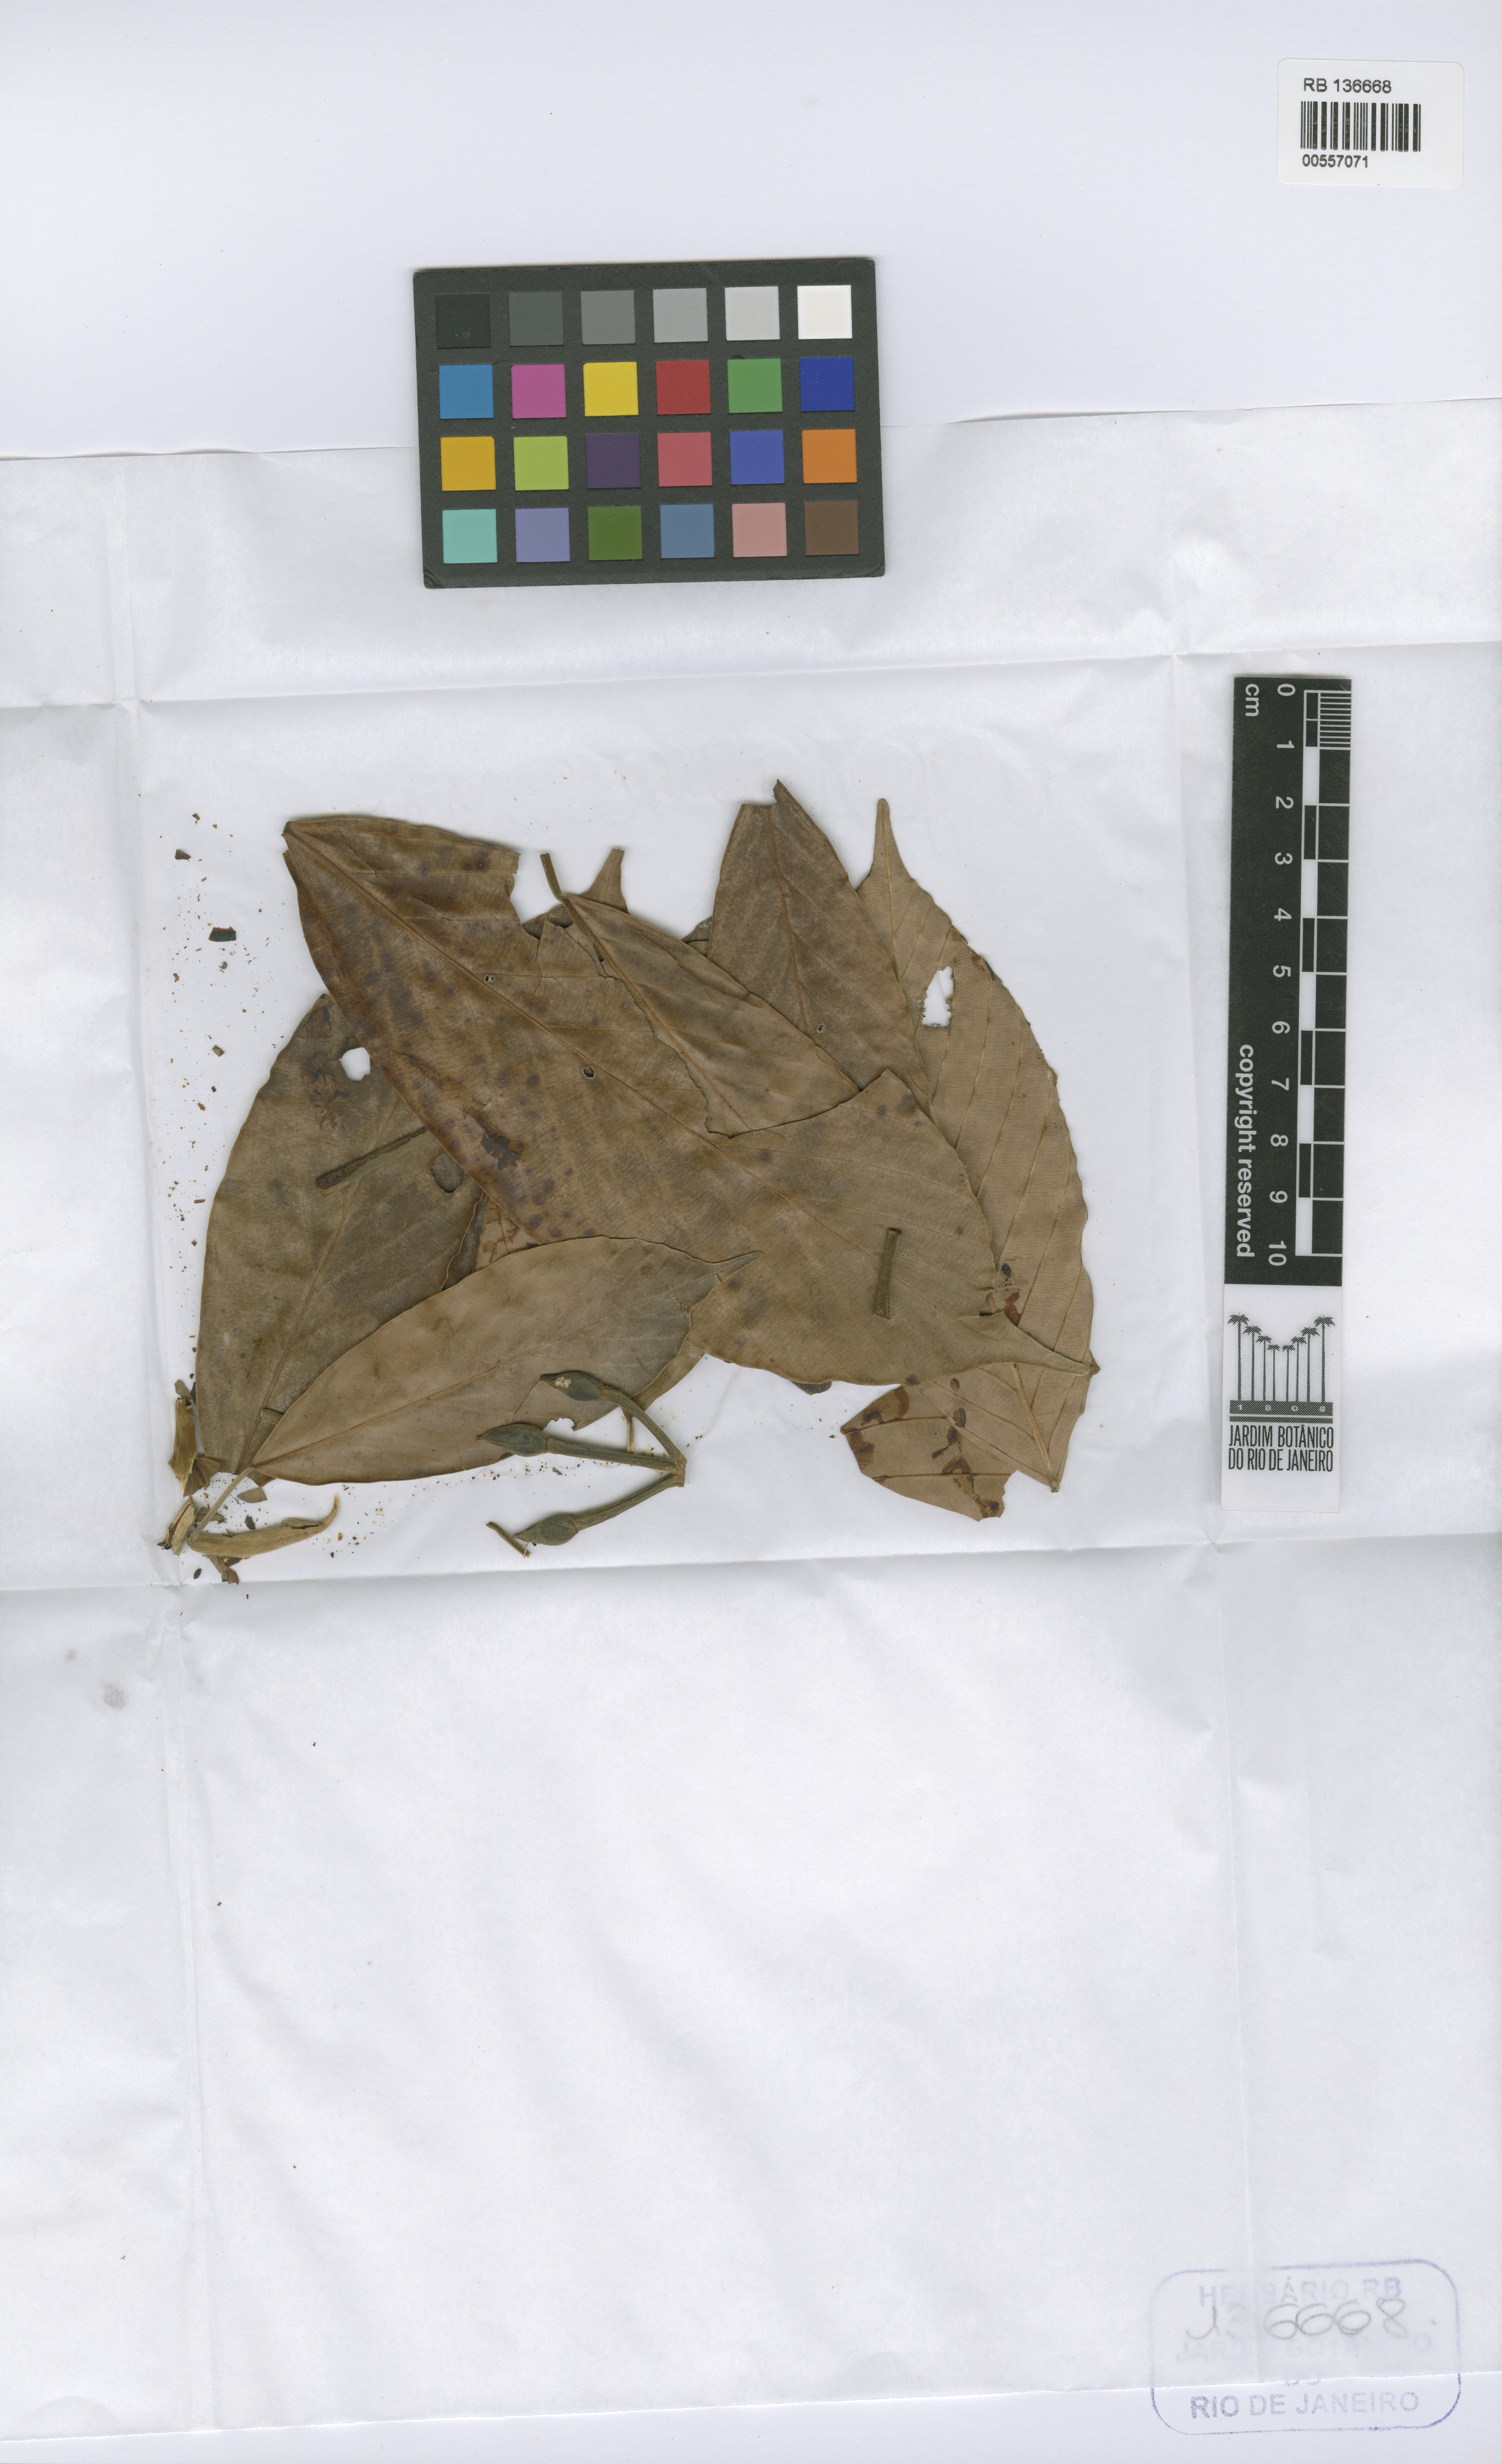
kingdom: Plantae
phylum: Tracheophyta
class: Magnoliopsida
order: Rosales
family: Urticaceae
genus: Pourouma
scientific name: Pourouma minor
